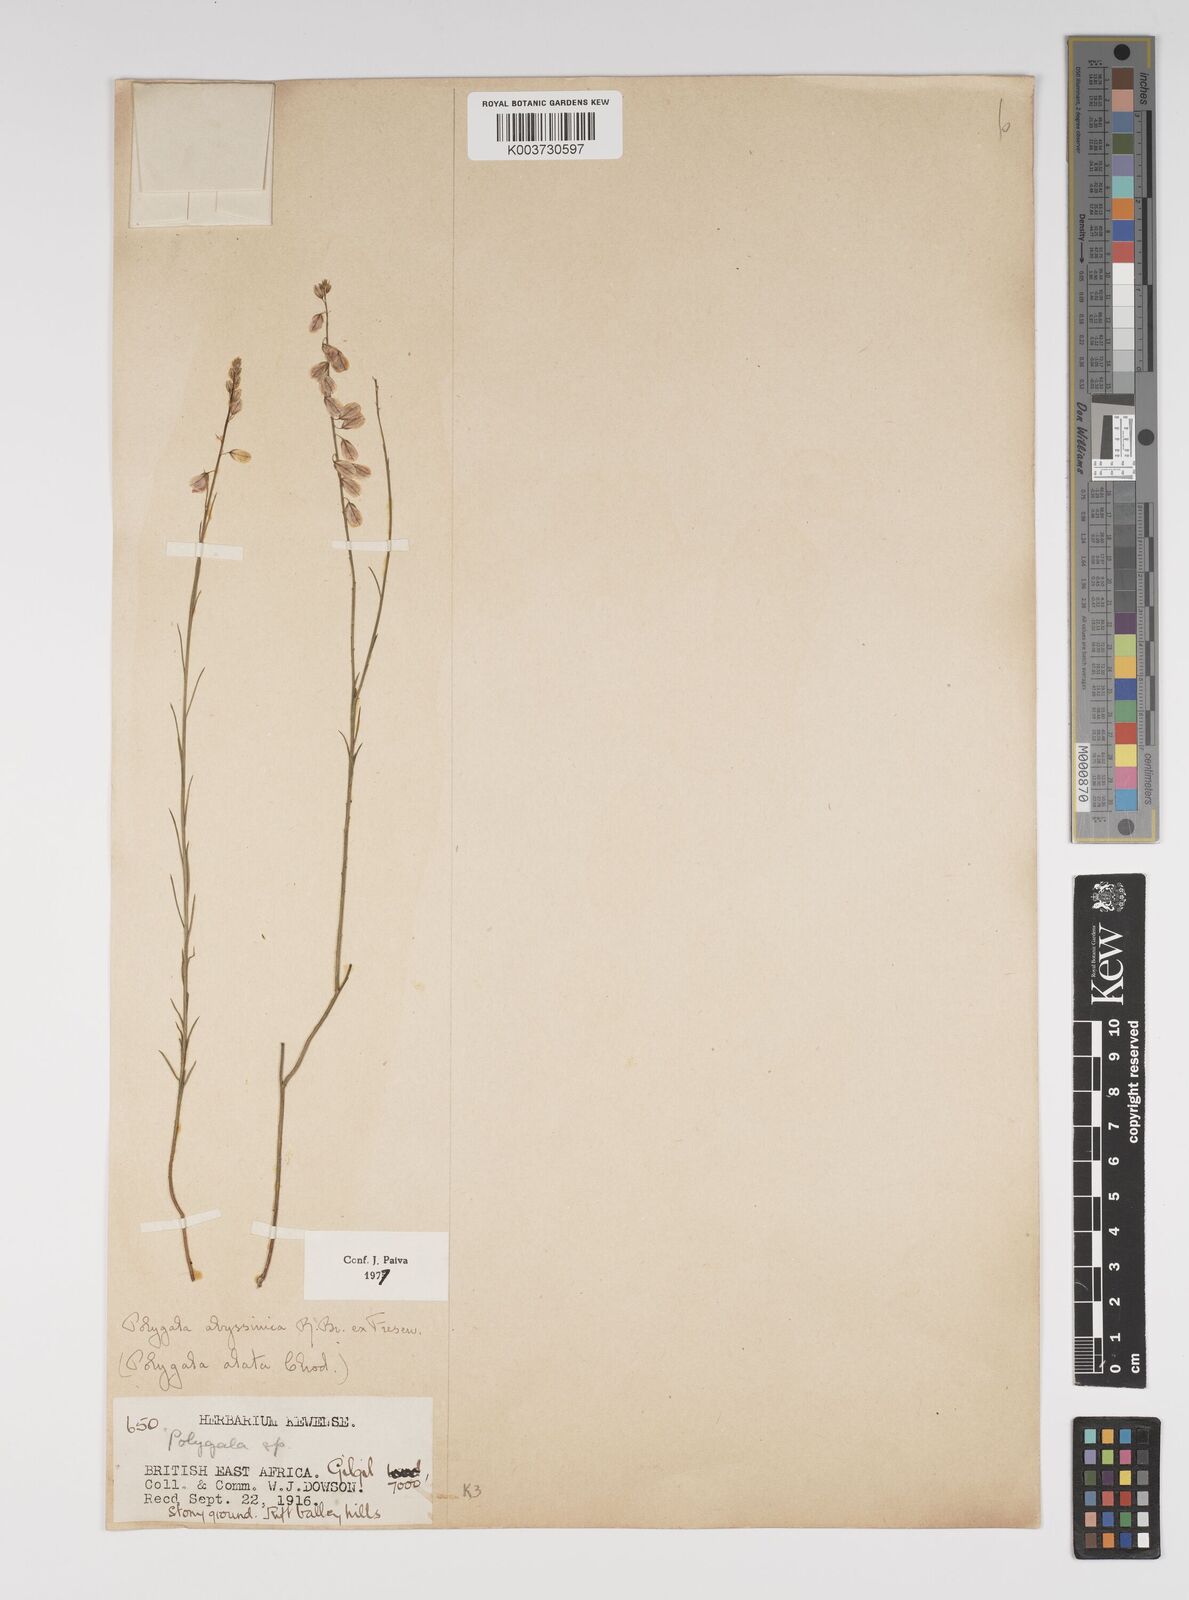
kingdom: Plantae
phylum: Tracheophyta
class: Magnoliopsida
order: Fabales
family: Polygalaceae
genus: Polygala
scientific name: Polygala abyssinica
